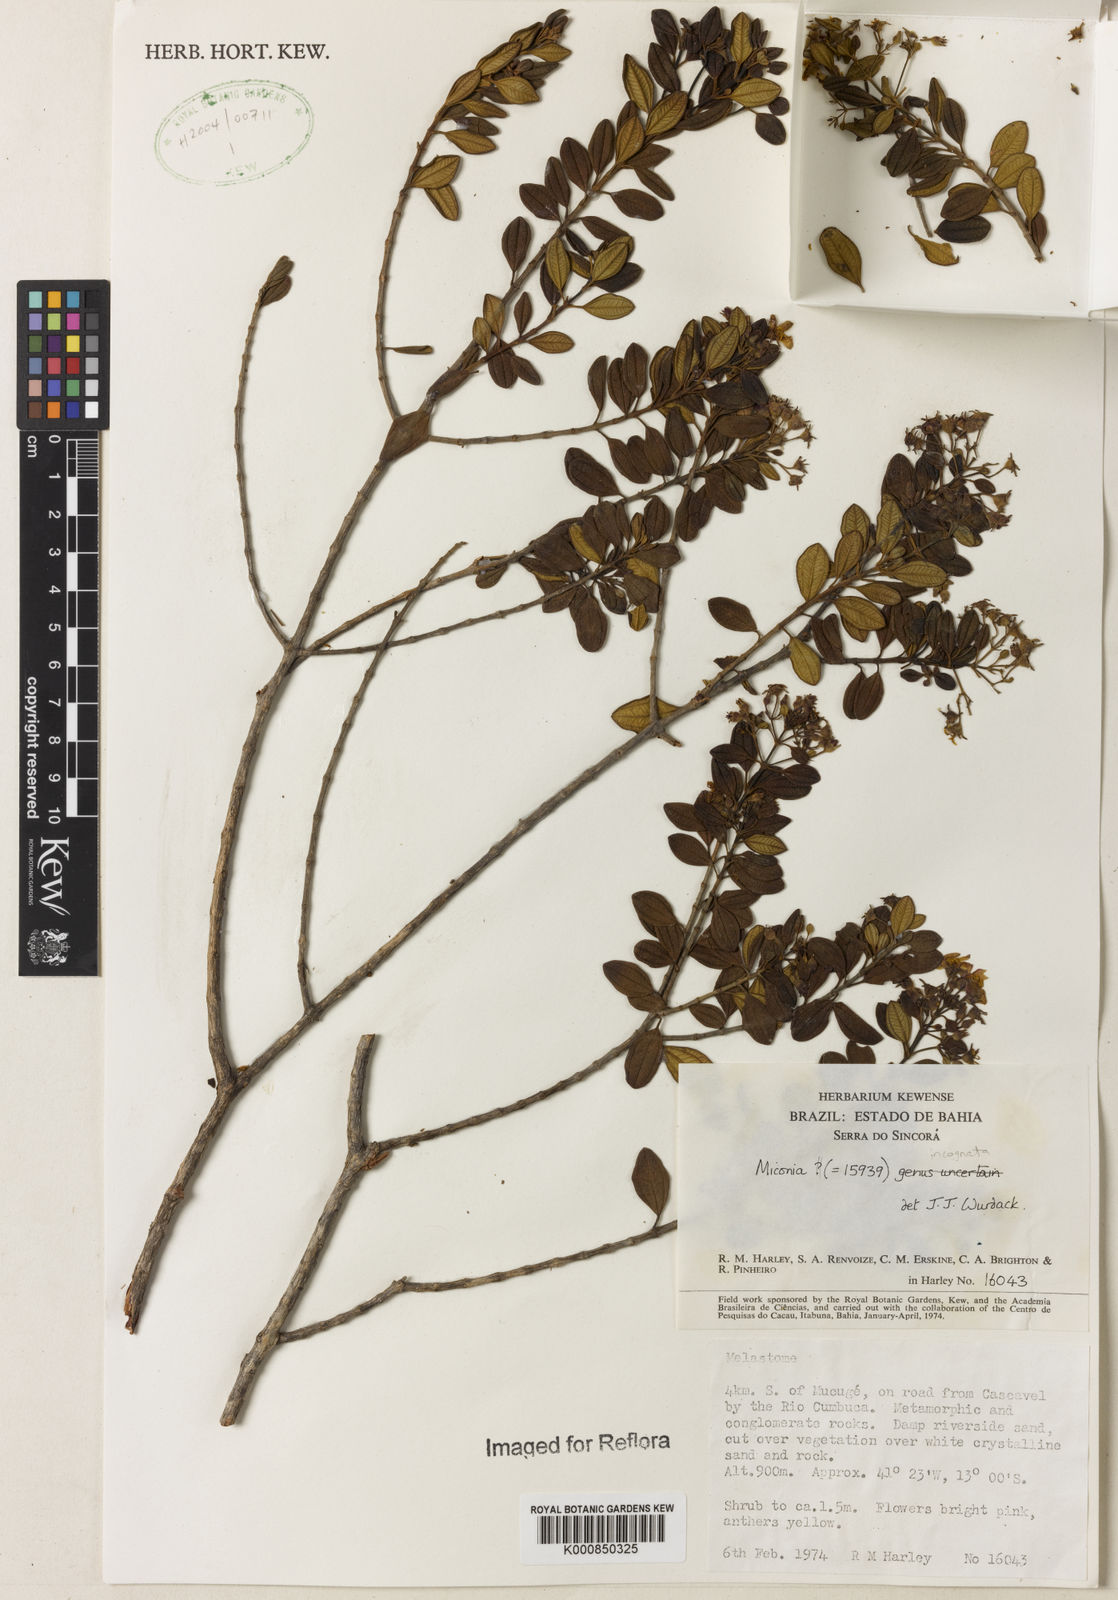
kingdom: Plantae
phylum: Tracheophyta
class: Magnoliopsida
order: Myrtales
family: Melastomataceae
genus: Miconia
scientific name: Miconia
